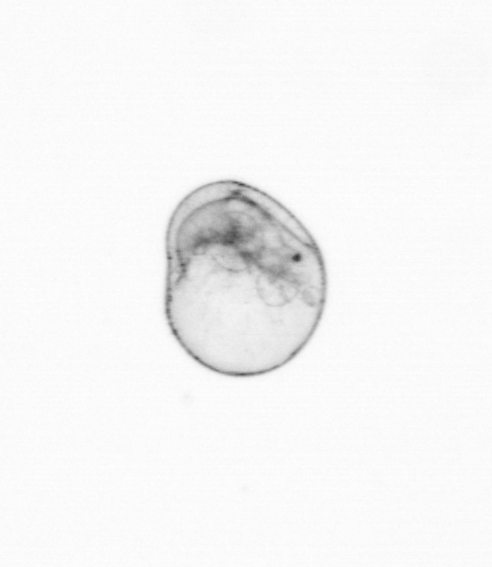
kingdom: Chromista
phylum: Myzozoa
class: Dinophyceae
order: Noctilucales
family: Noctilucaceae
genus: Noctiluca
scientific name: Noctiluca scintillans
